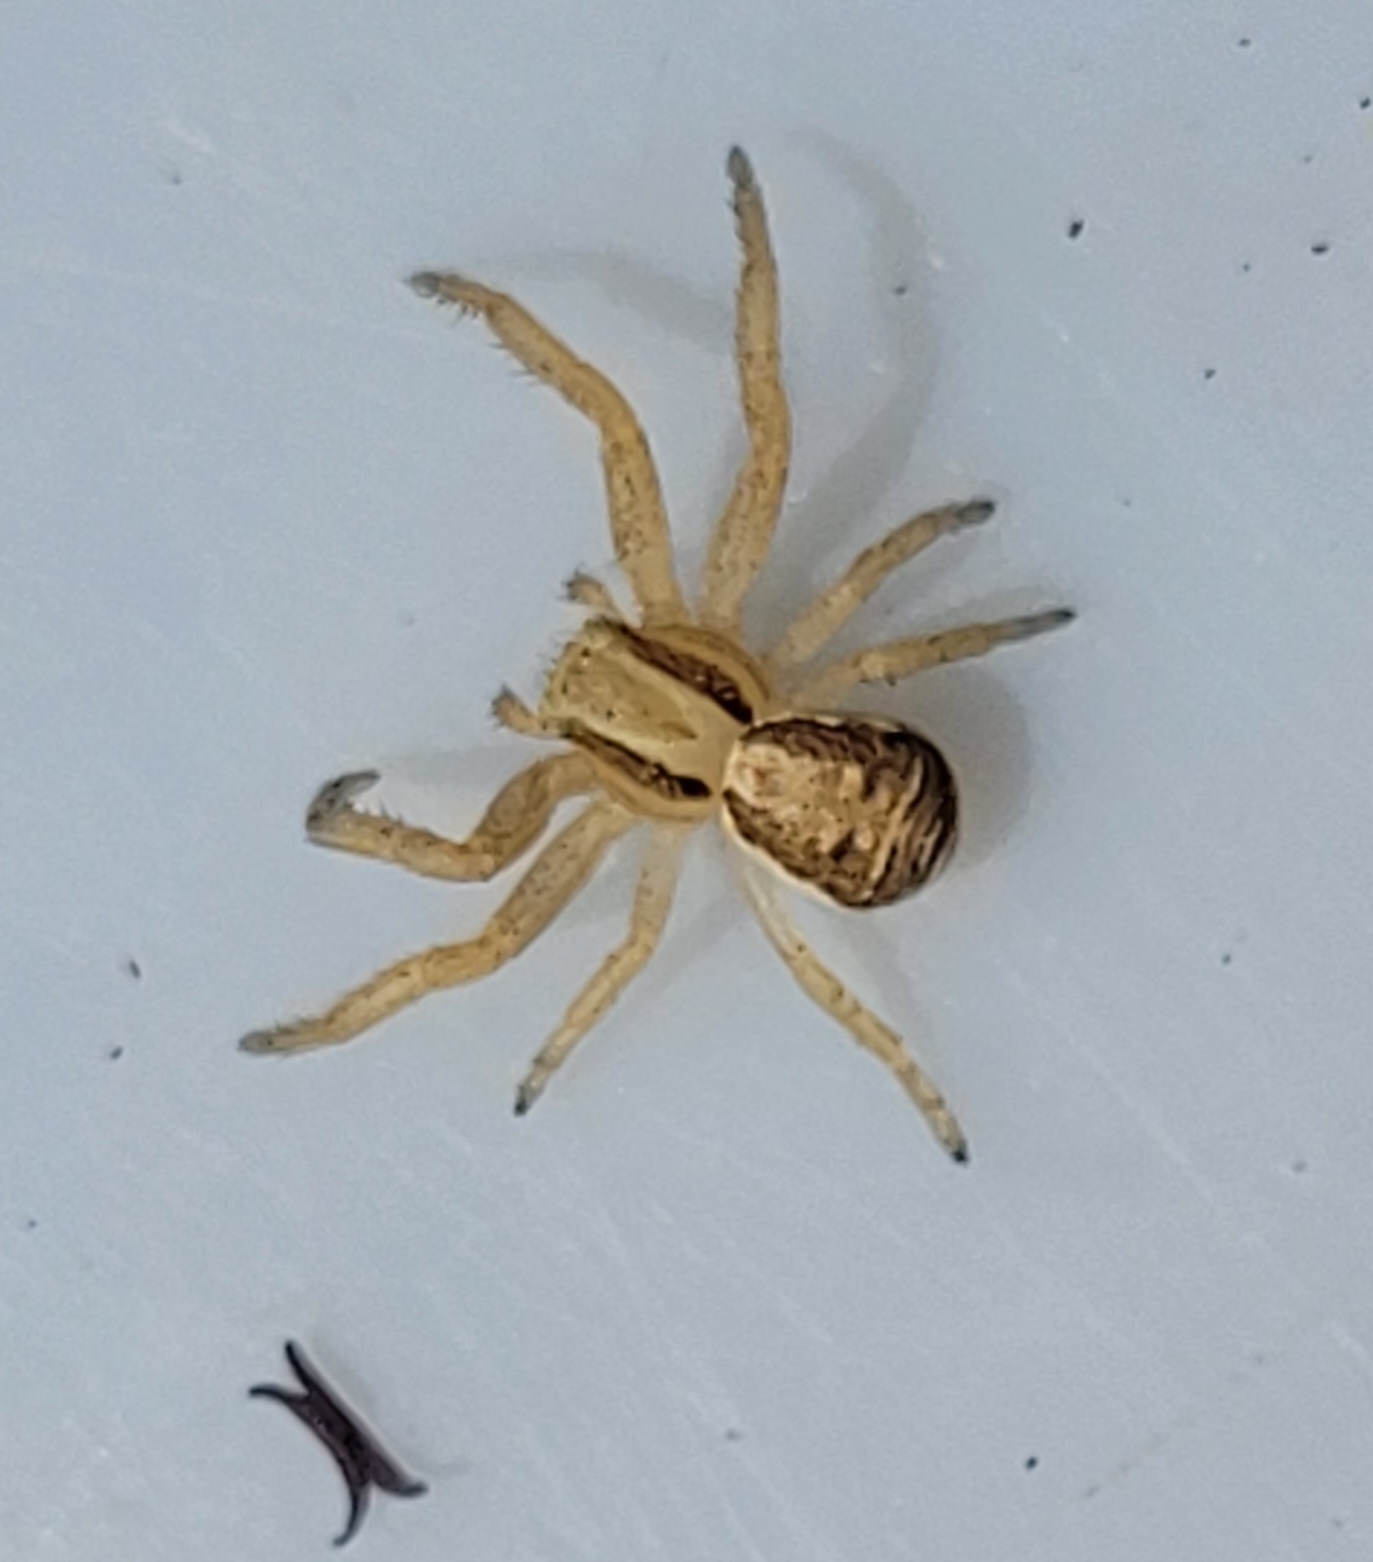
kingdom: Animalia
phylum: Arthropoda
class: Arachnida
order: Araneae
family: Thomisidae
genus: Xysticus
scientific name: Xysticus ulmi
